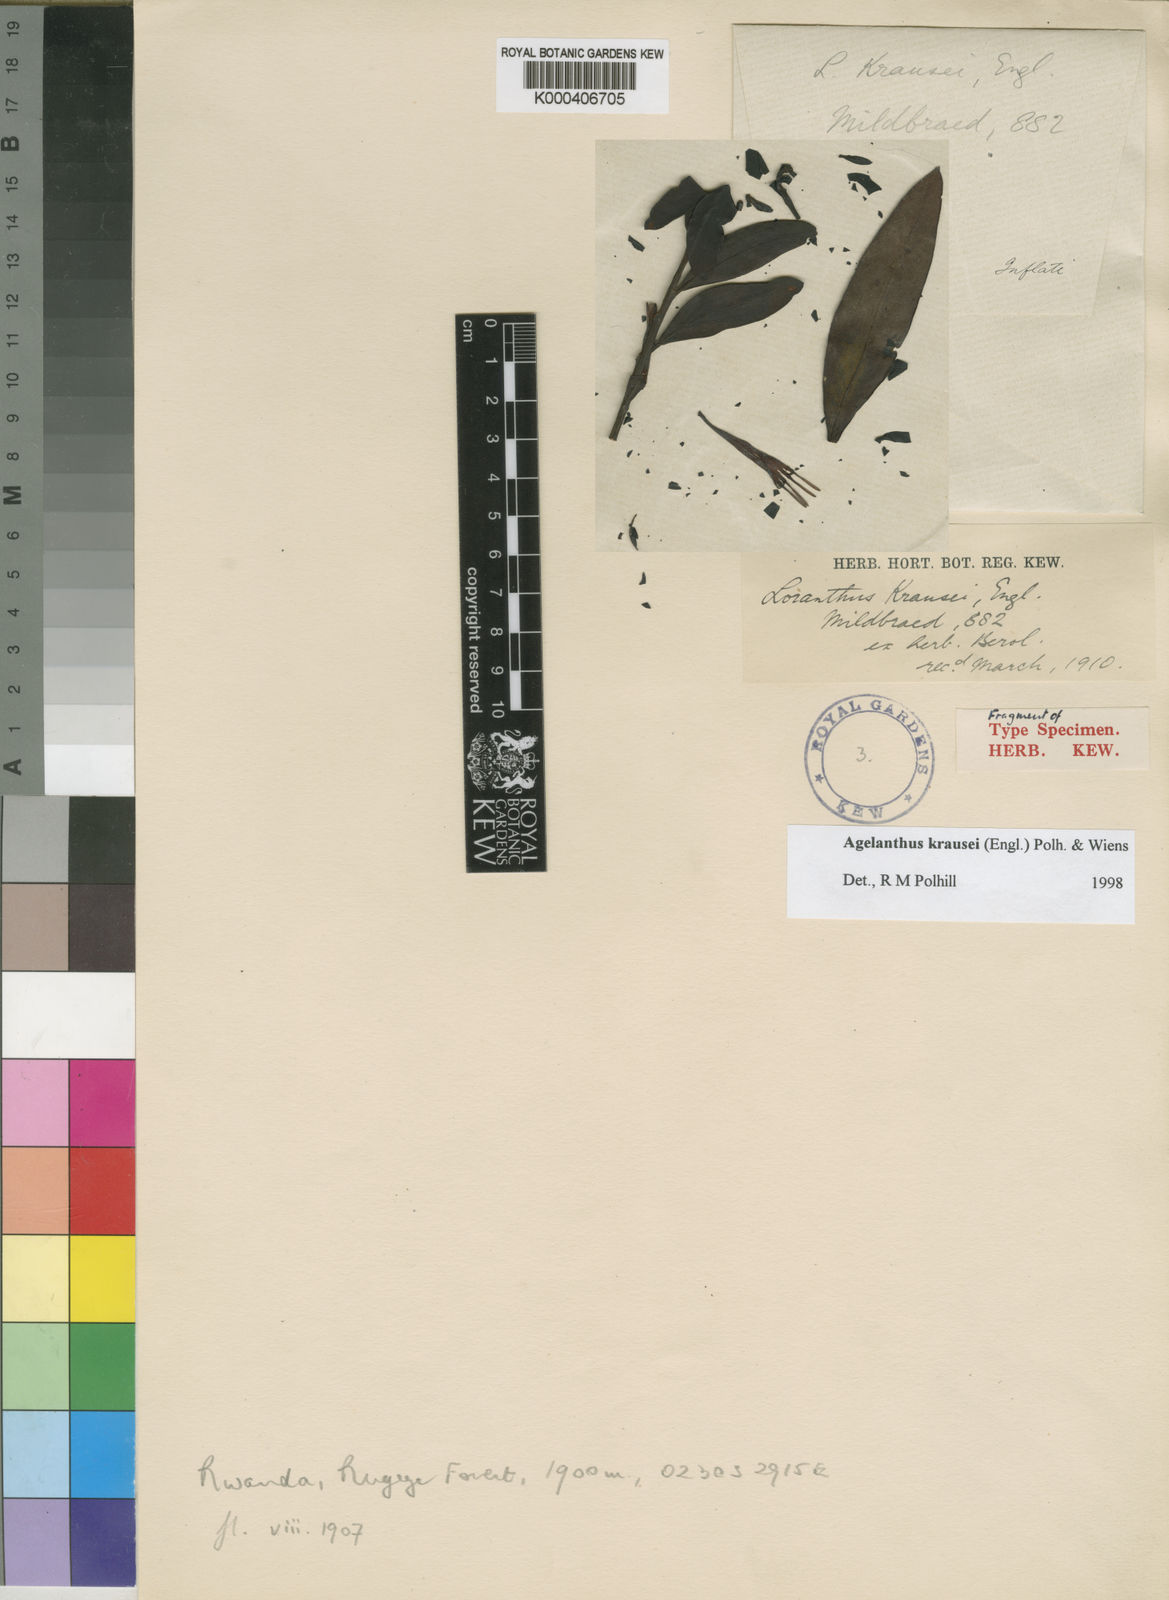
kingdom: Plantae
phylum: Tracheophyta
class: Magnoliopsida
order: Santalales
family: Loranthaceae
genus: Agelanthus
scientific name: Agelanthus krausei
